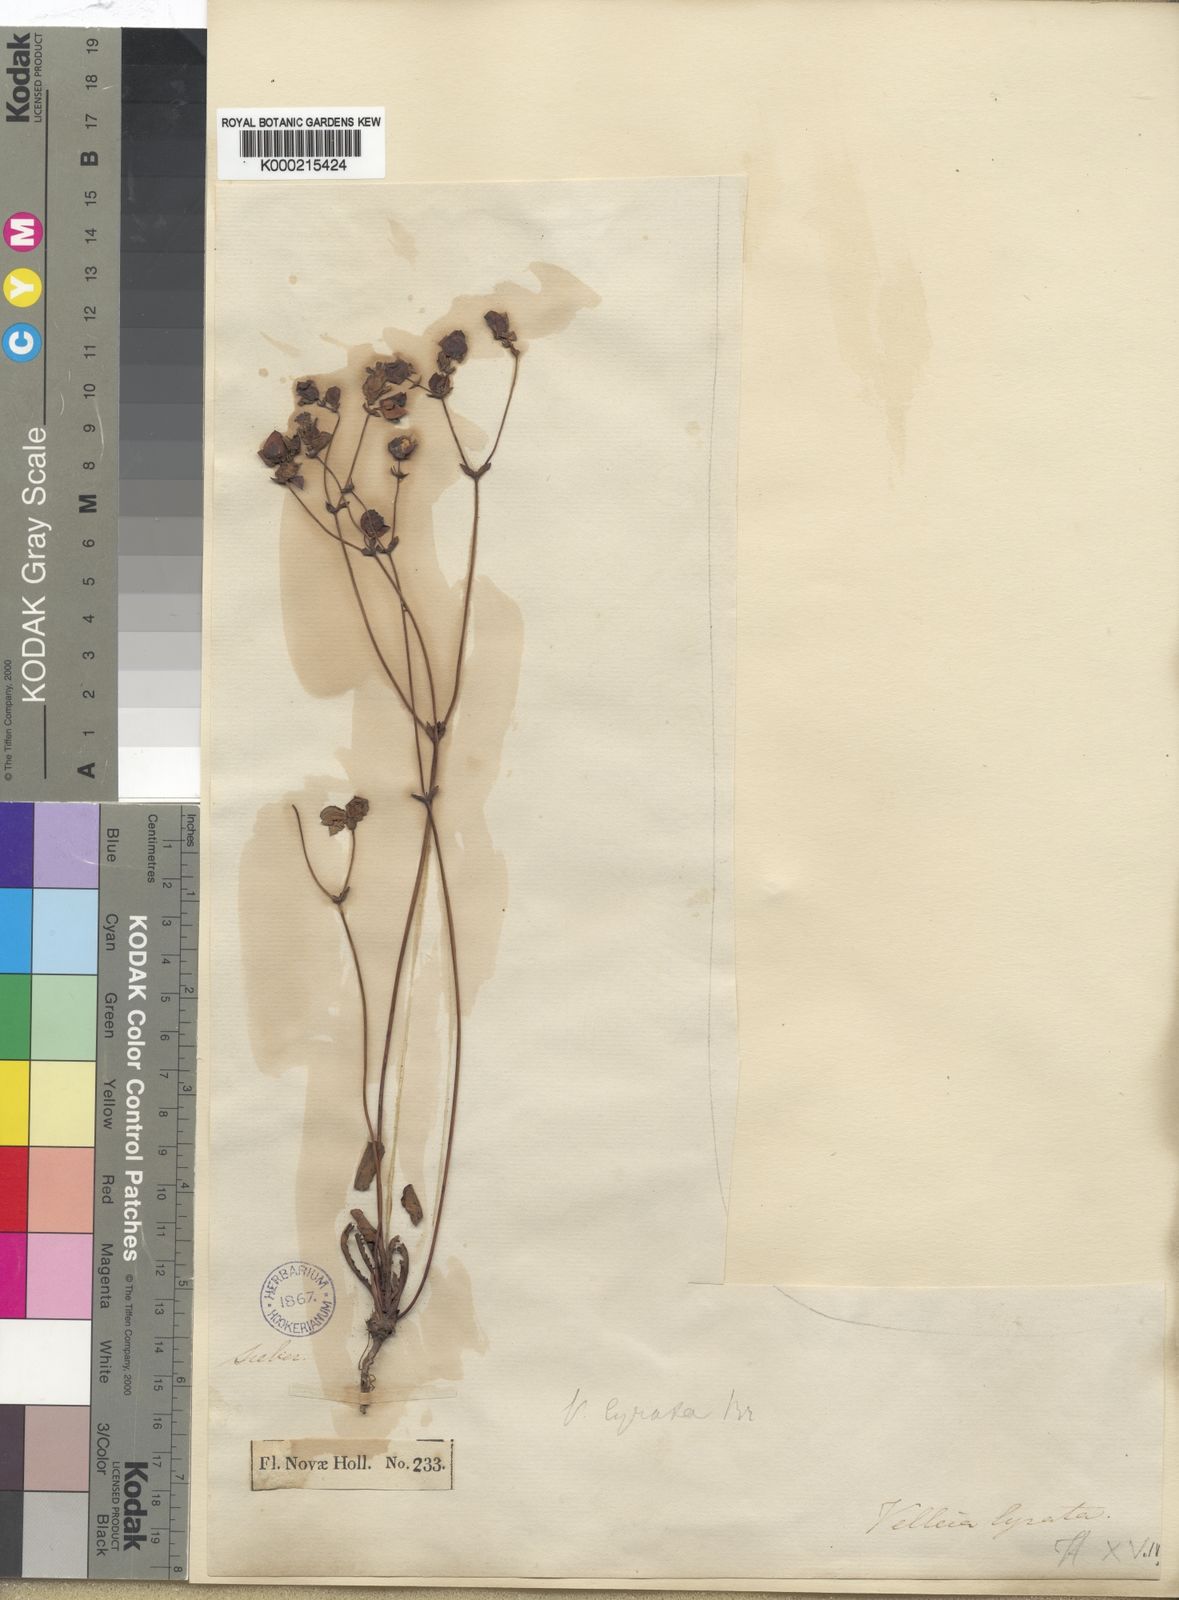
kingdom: Plantae
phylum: Tracheophyta
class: Magnoliopsida
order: Asterales
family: Goodeniaceae
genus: Goodenia
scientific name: Goodenia caroliniana
